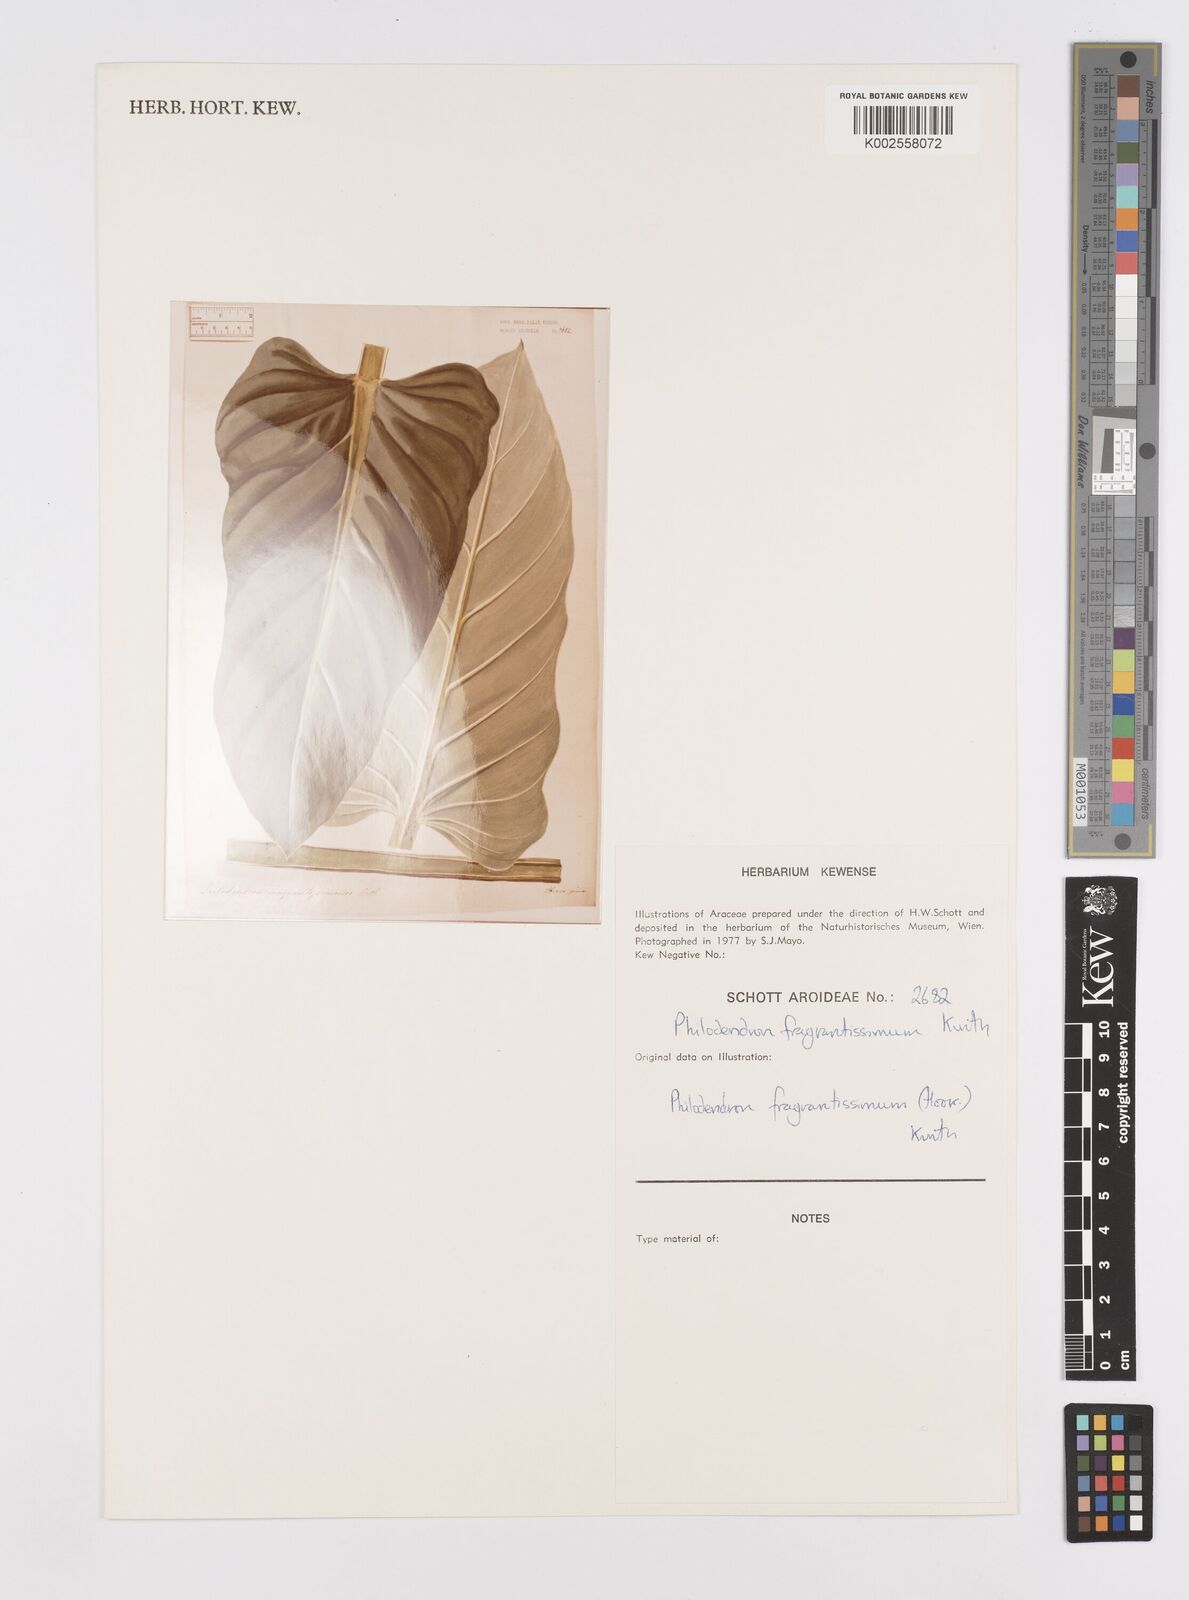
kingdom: Plantae
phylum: Tracheophyta
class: Liliopsida
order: Alismatales
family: Araceae
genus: Philodendron
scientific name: Philodendron fragrantissimum
